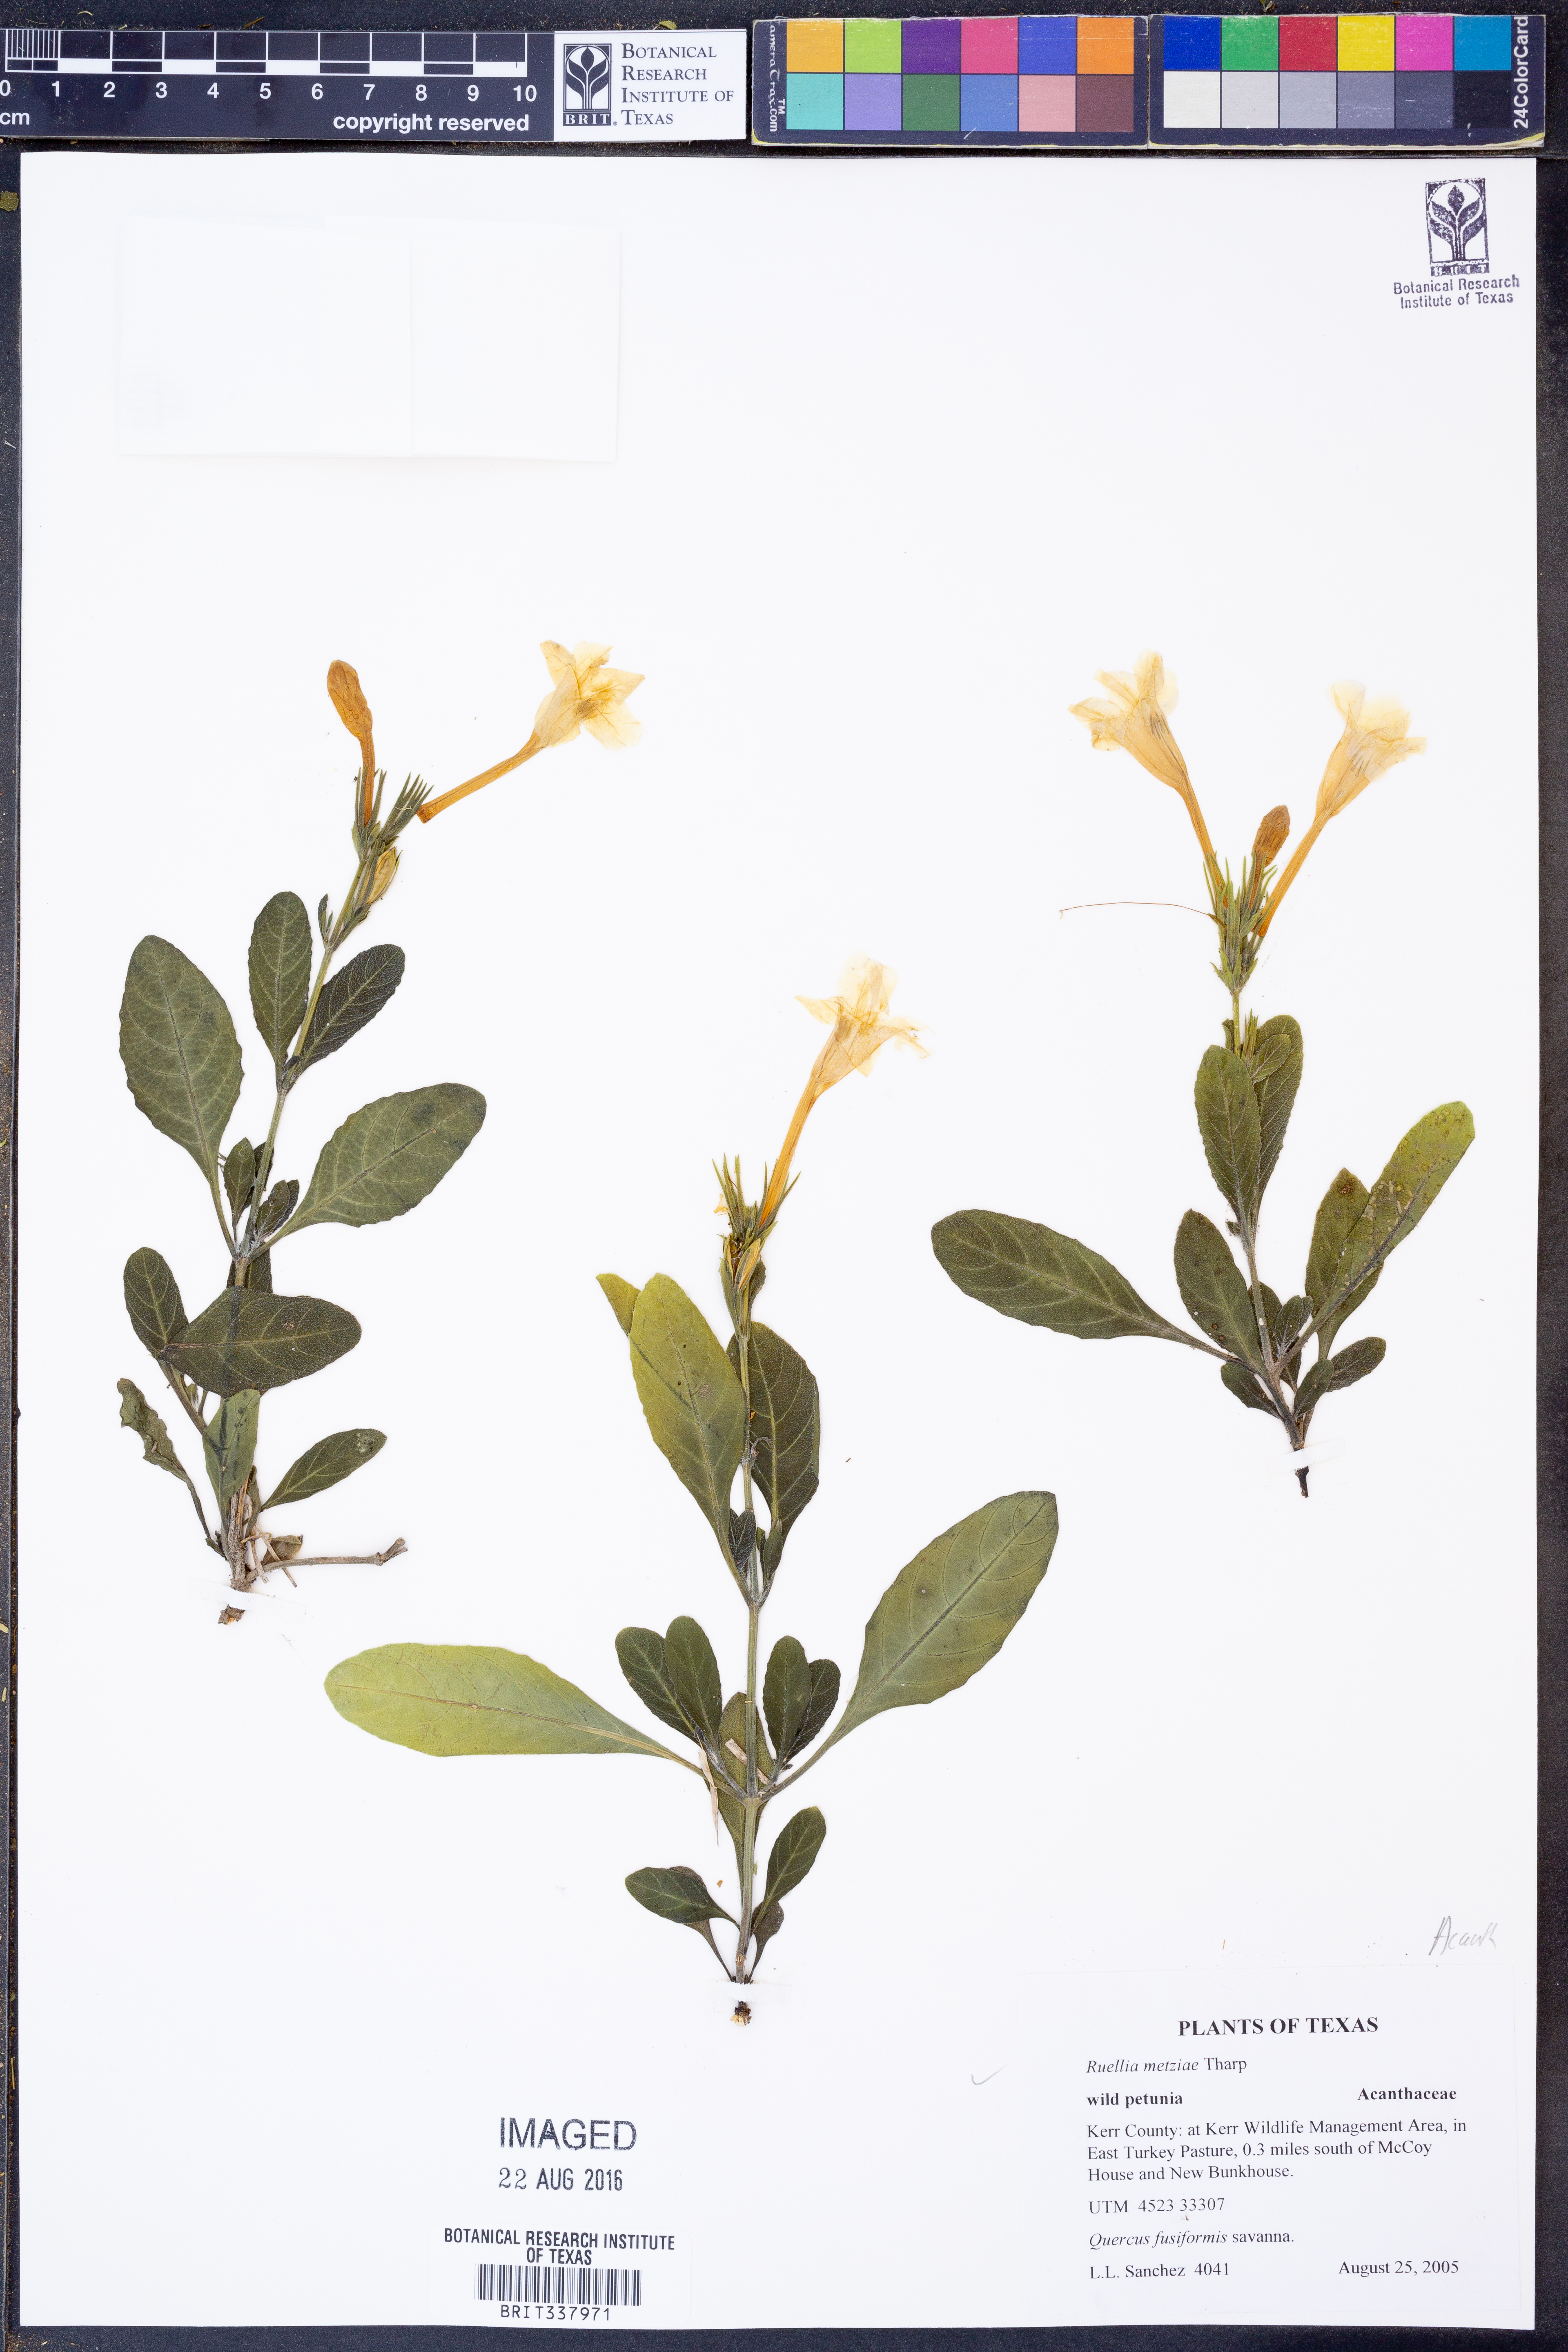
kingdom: Plantae
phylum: Tracheophyta
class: Magnoliopsida
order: Lamiales
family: Acanthaceae
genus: Ruellia
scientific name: Ruellia metziae
